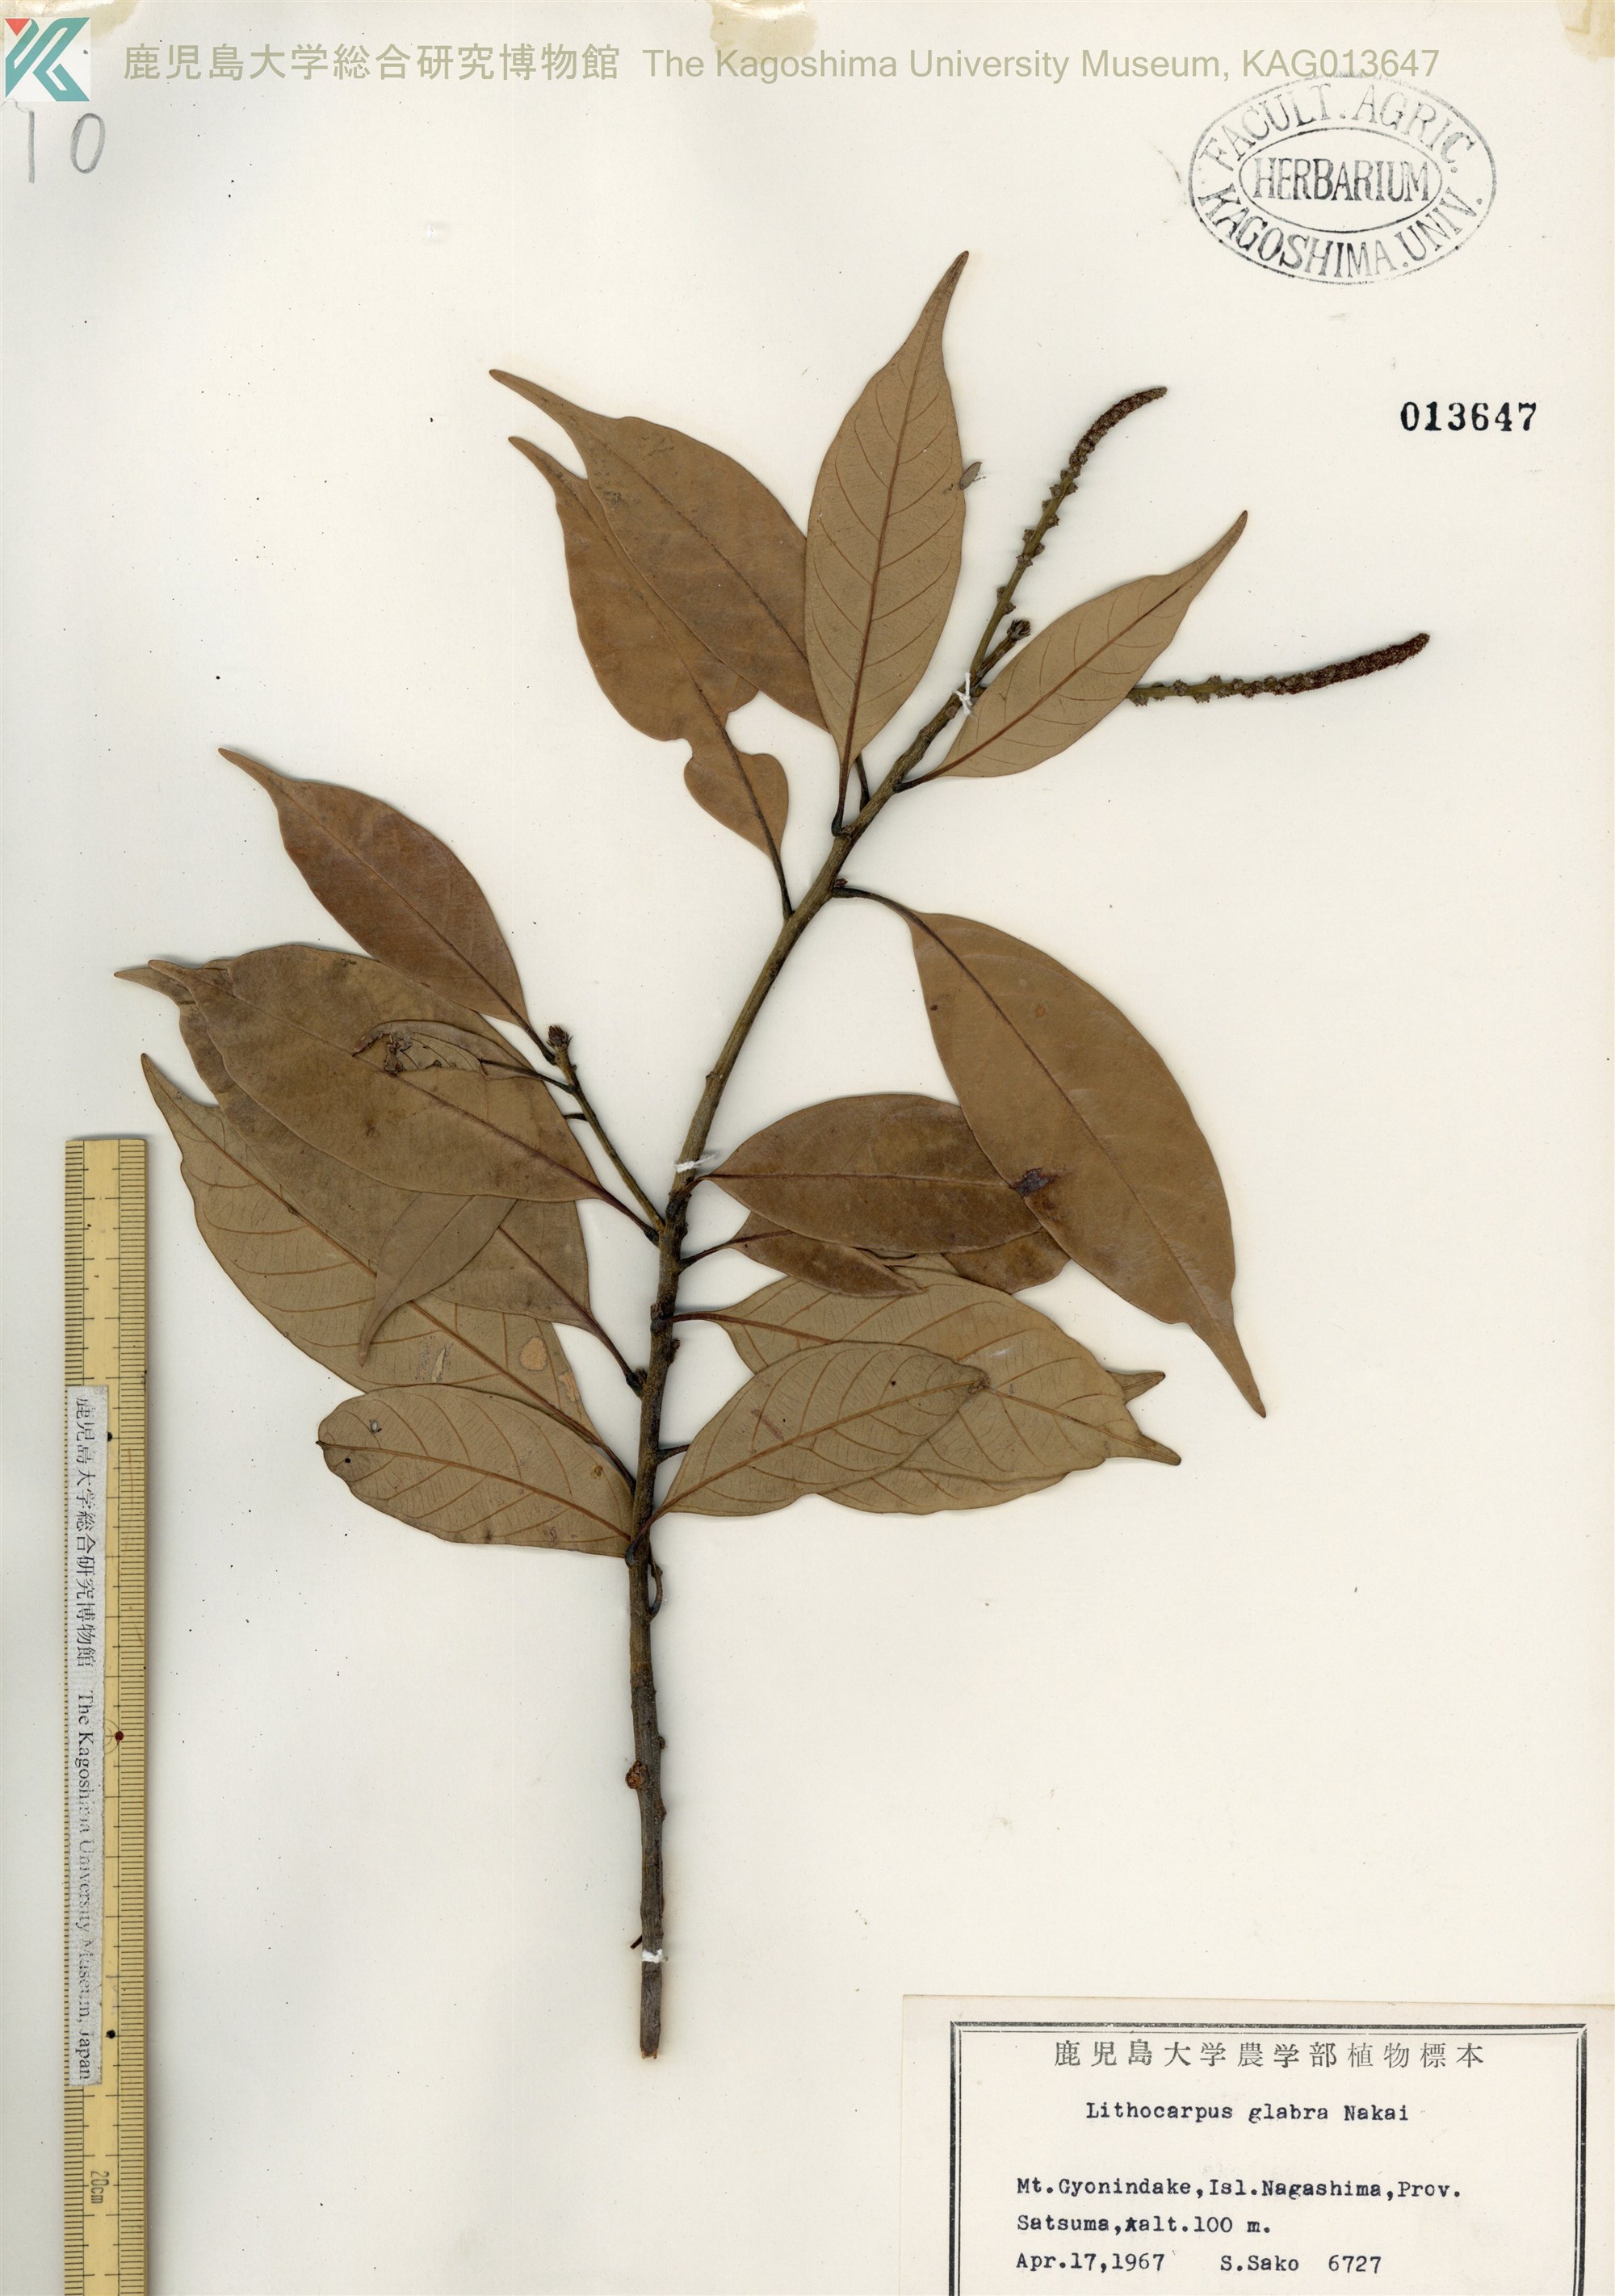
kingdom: Plantae
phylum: Tracheophyta
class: Magnoliopsida
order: Fagales
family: Fagaceae
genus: Lithocarpus
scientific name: Lithocarpus glaber
